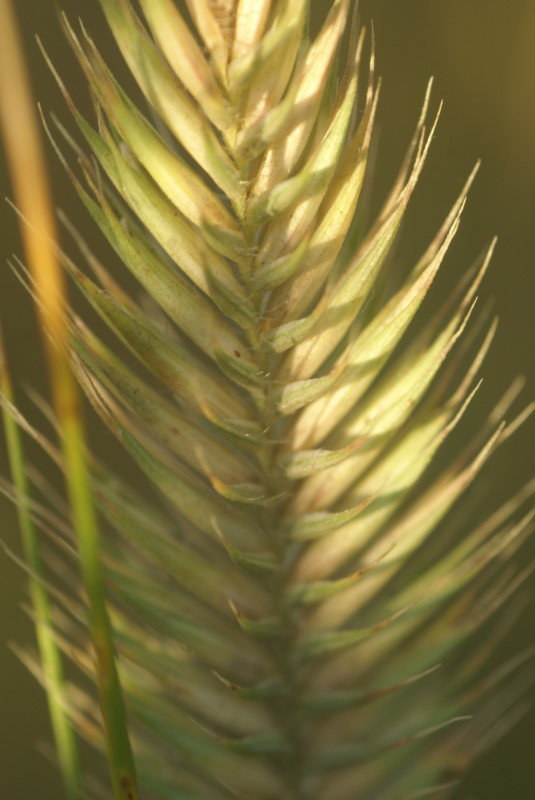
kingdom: Plantae
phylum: Tracheophyta
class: Liliopsida
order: Poales
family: Poaceae
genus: Eremopyrum
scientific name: Eremopyrum orientale
